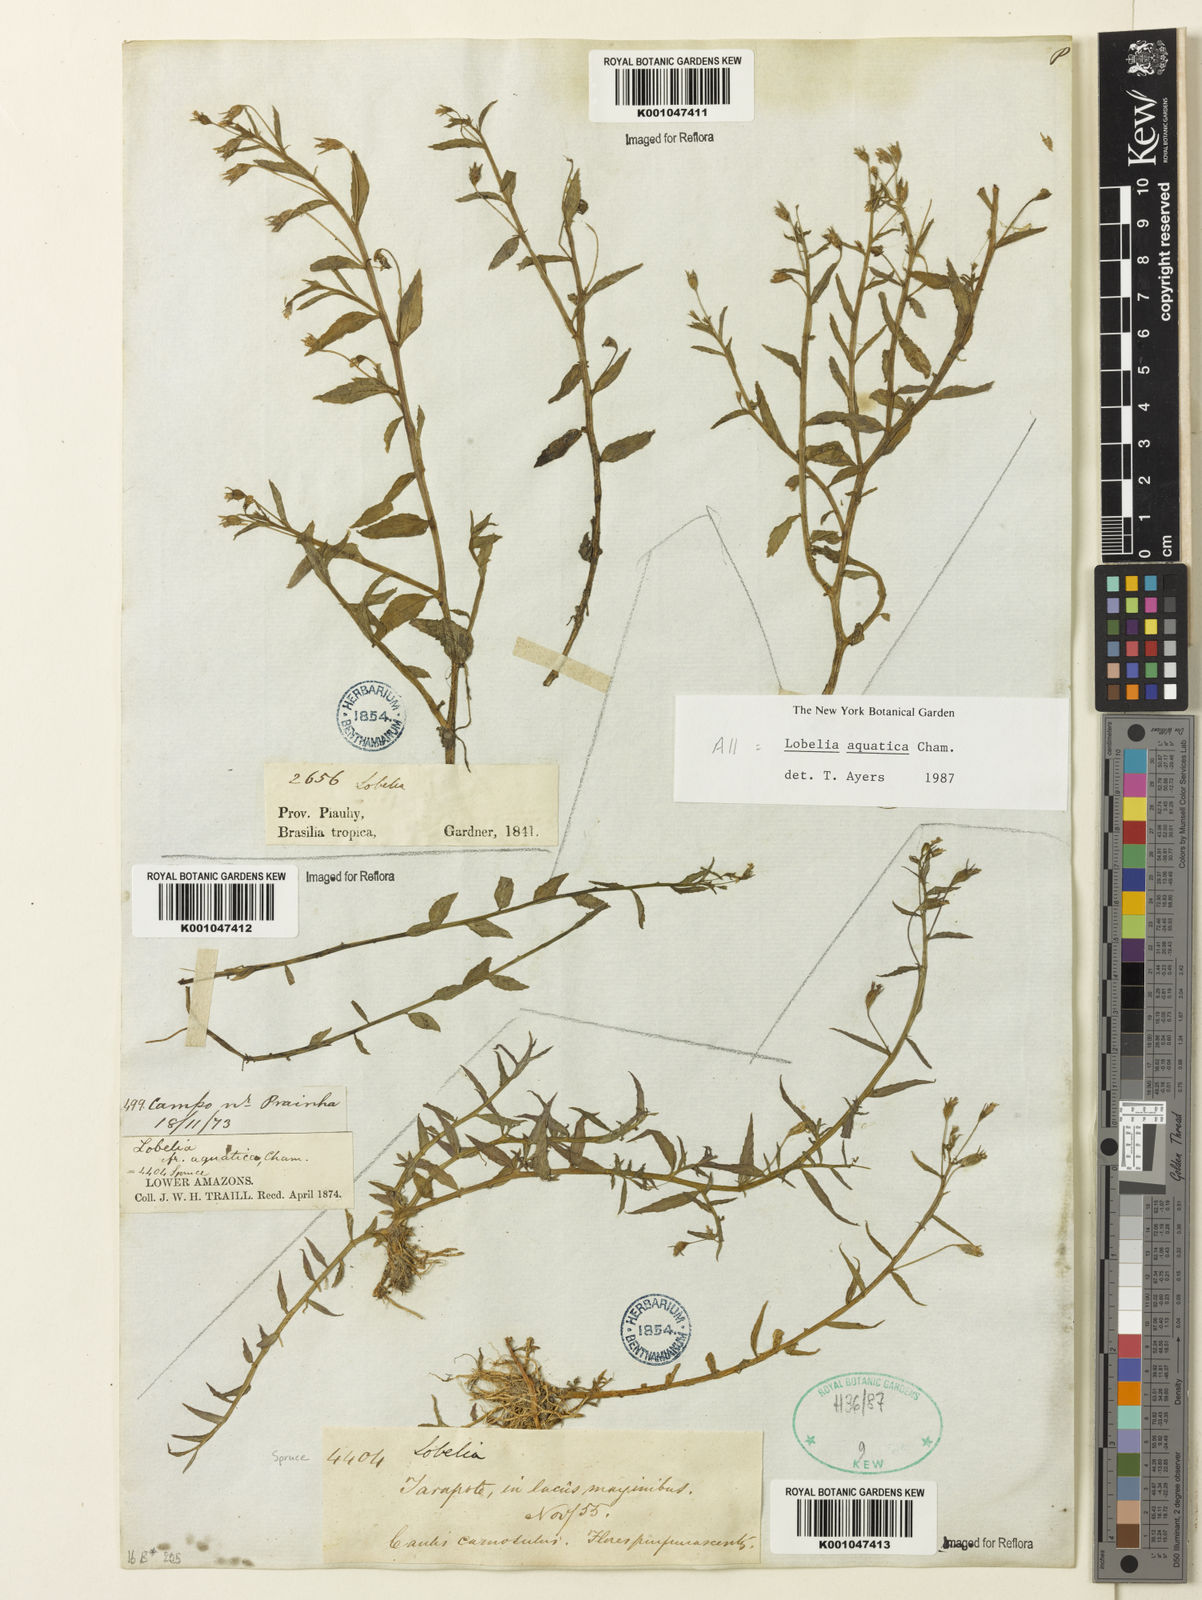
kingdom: Plantae
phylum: Tracheophyta
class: Magnoliopsida
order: Asterales
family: Campanulaceae
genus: Lobelia
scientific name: Lobelia aquatica
